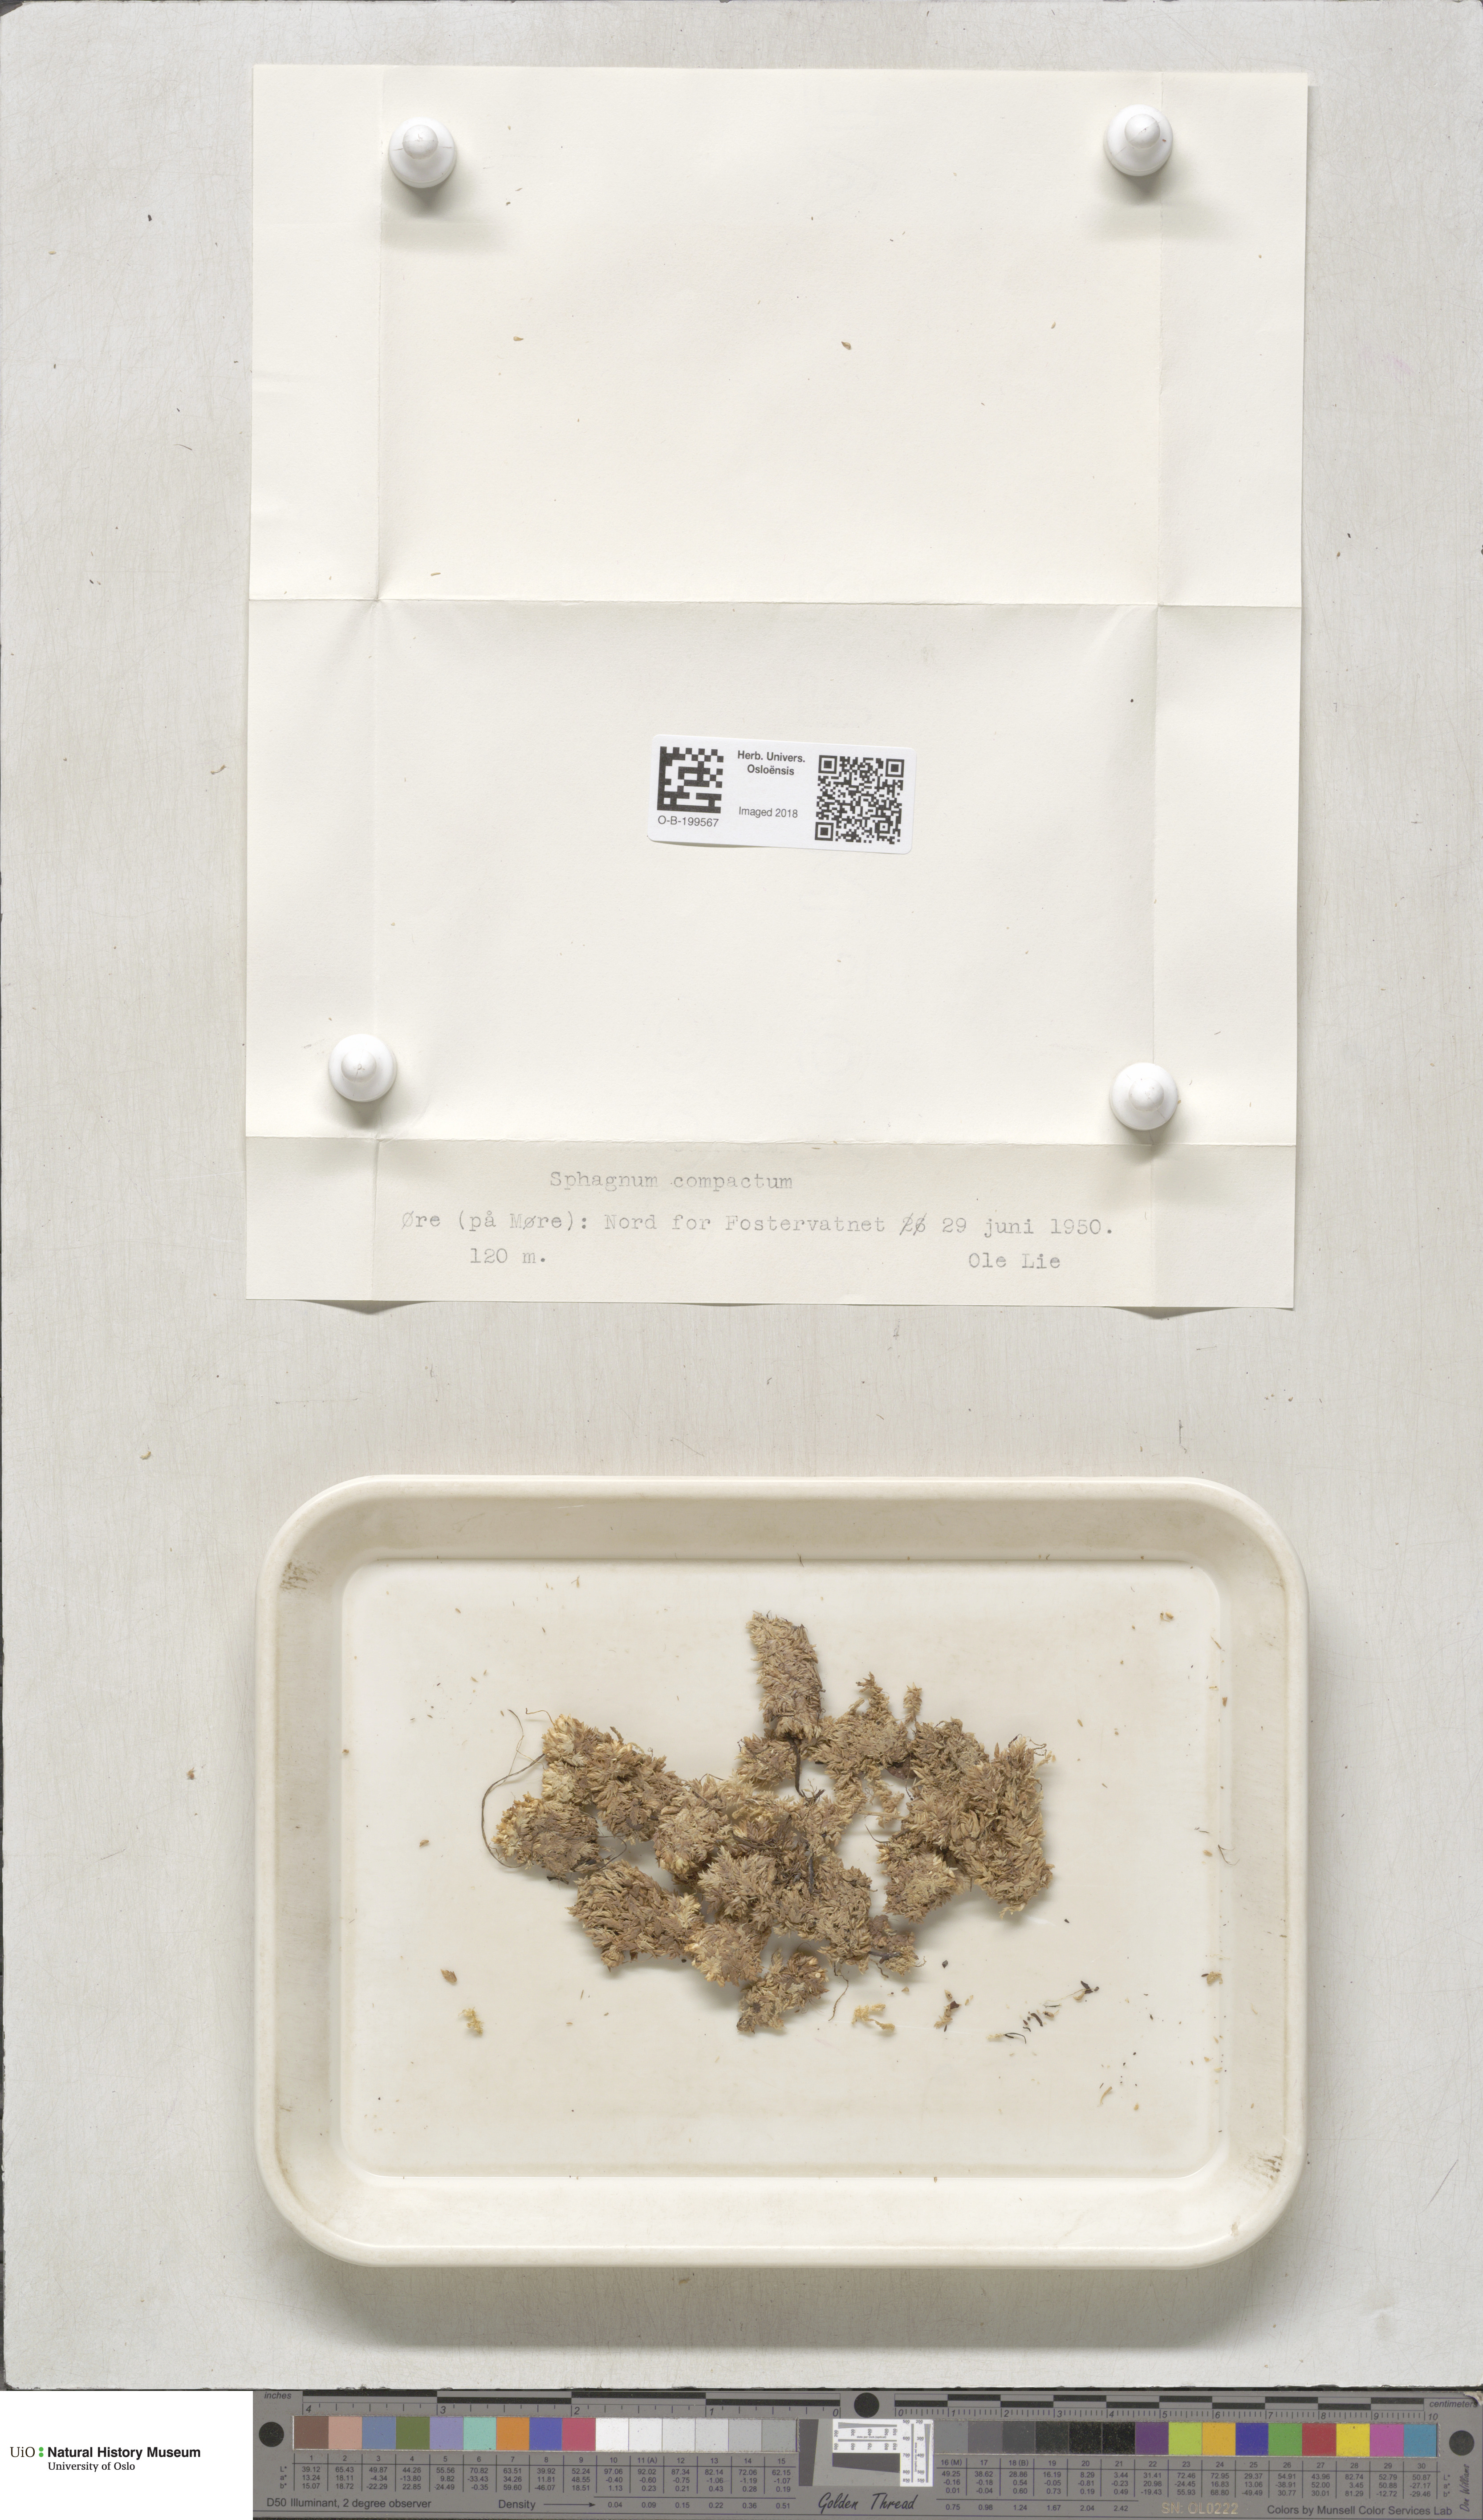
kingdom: Plantae
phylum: Bryophyta
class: Sphagnopsida
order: Sphagnales
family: Sphagnaceae
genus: Sphagnum
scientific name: Sphagnum compactum
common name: Compact peat moss
